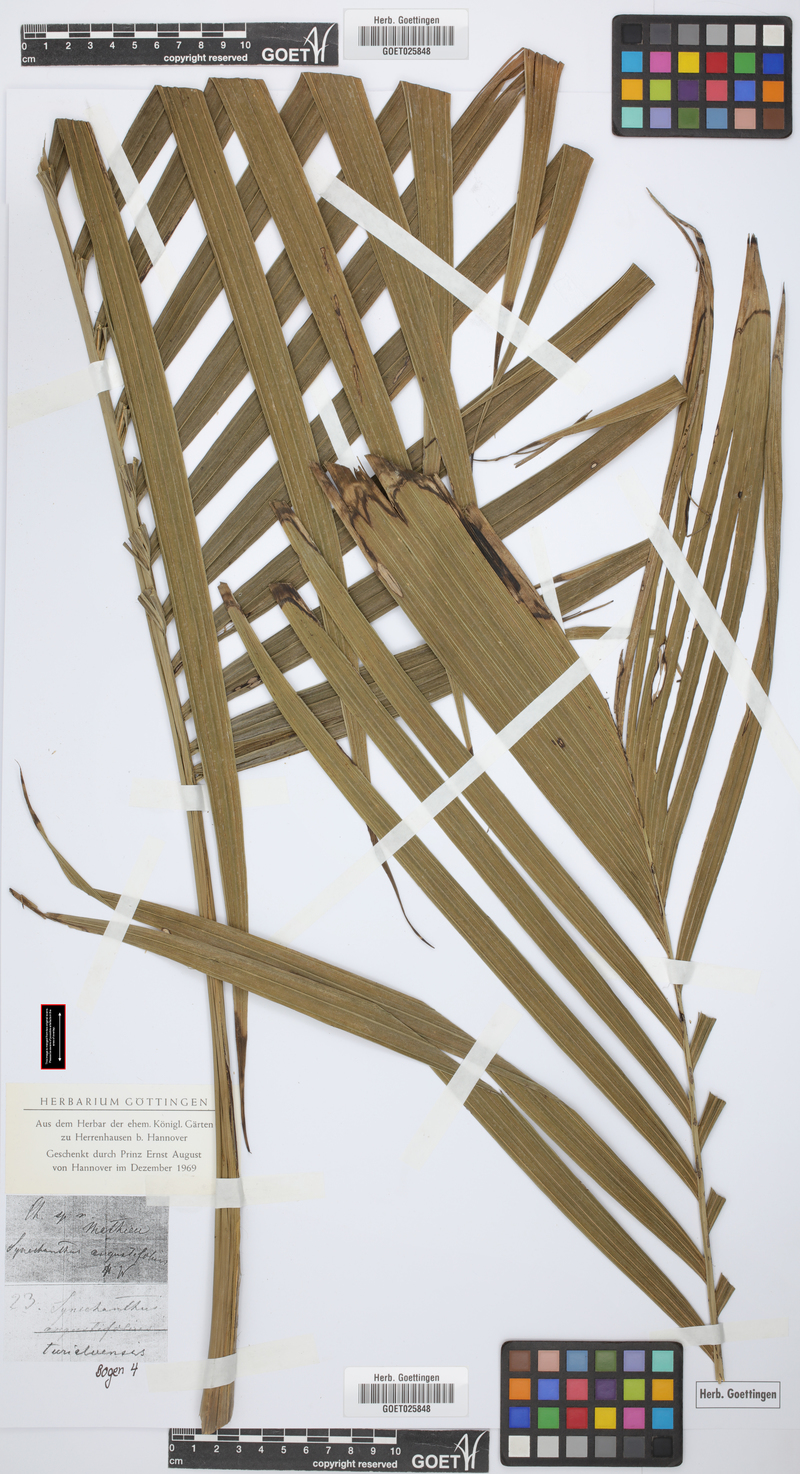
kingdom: Plantae
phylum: Tracheophyta
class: Liliopsida
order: Arecales
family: Arecaceae
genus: Synechanthus
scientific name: Synechanthus warscewiczianus
